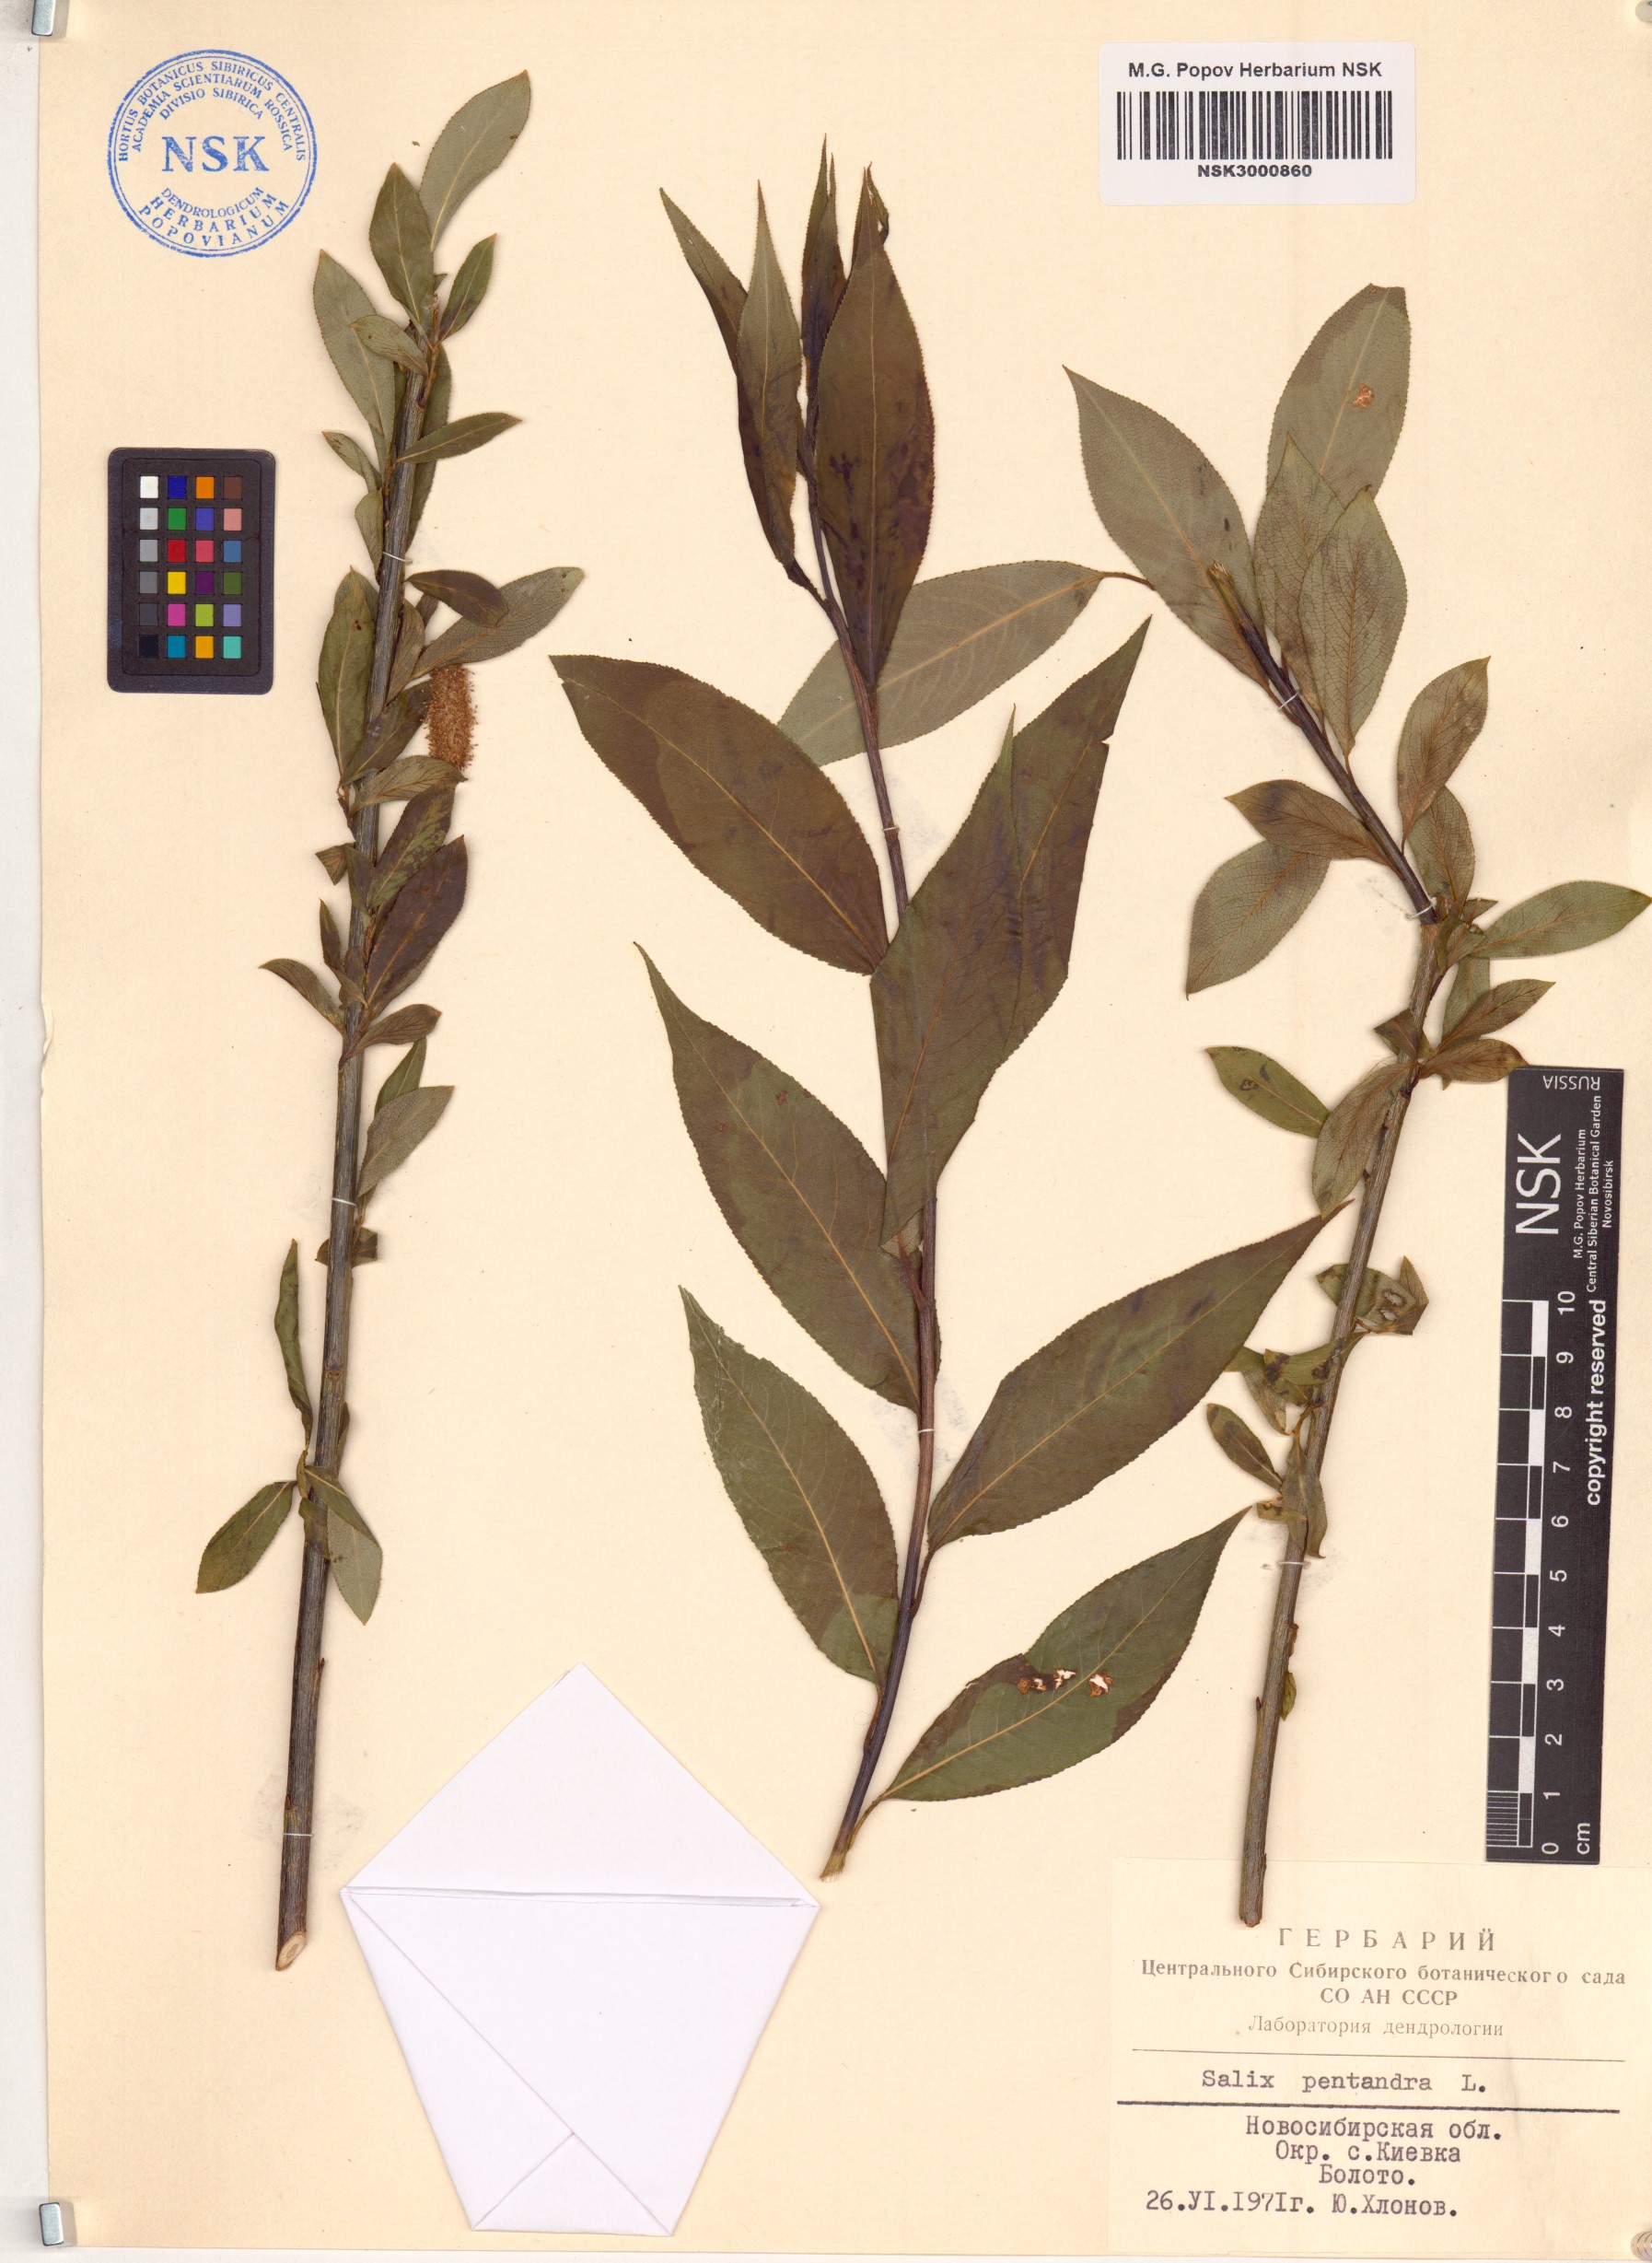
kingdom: Plantae
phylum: Tracheophyta
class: Magnoliopsida
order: Malpighiales
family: Salicaceae
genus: Salix
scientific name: Salix pentandra
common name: Bay willow
